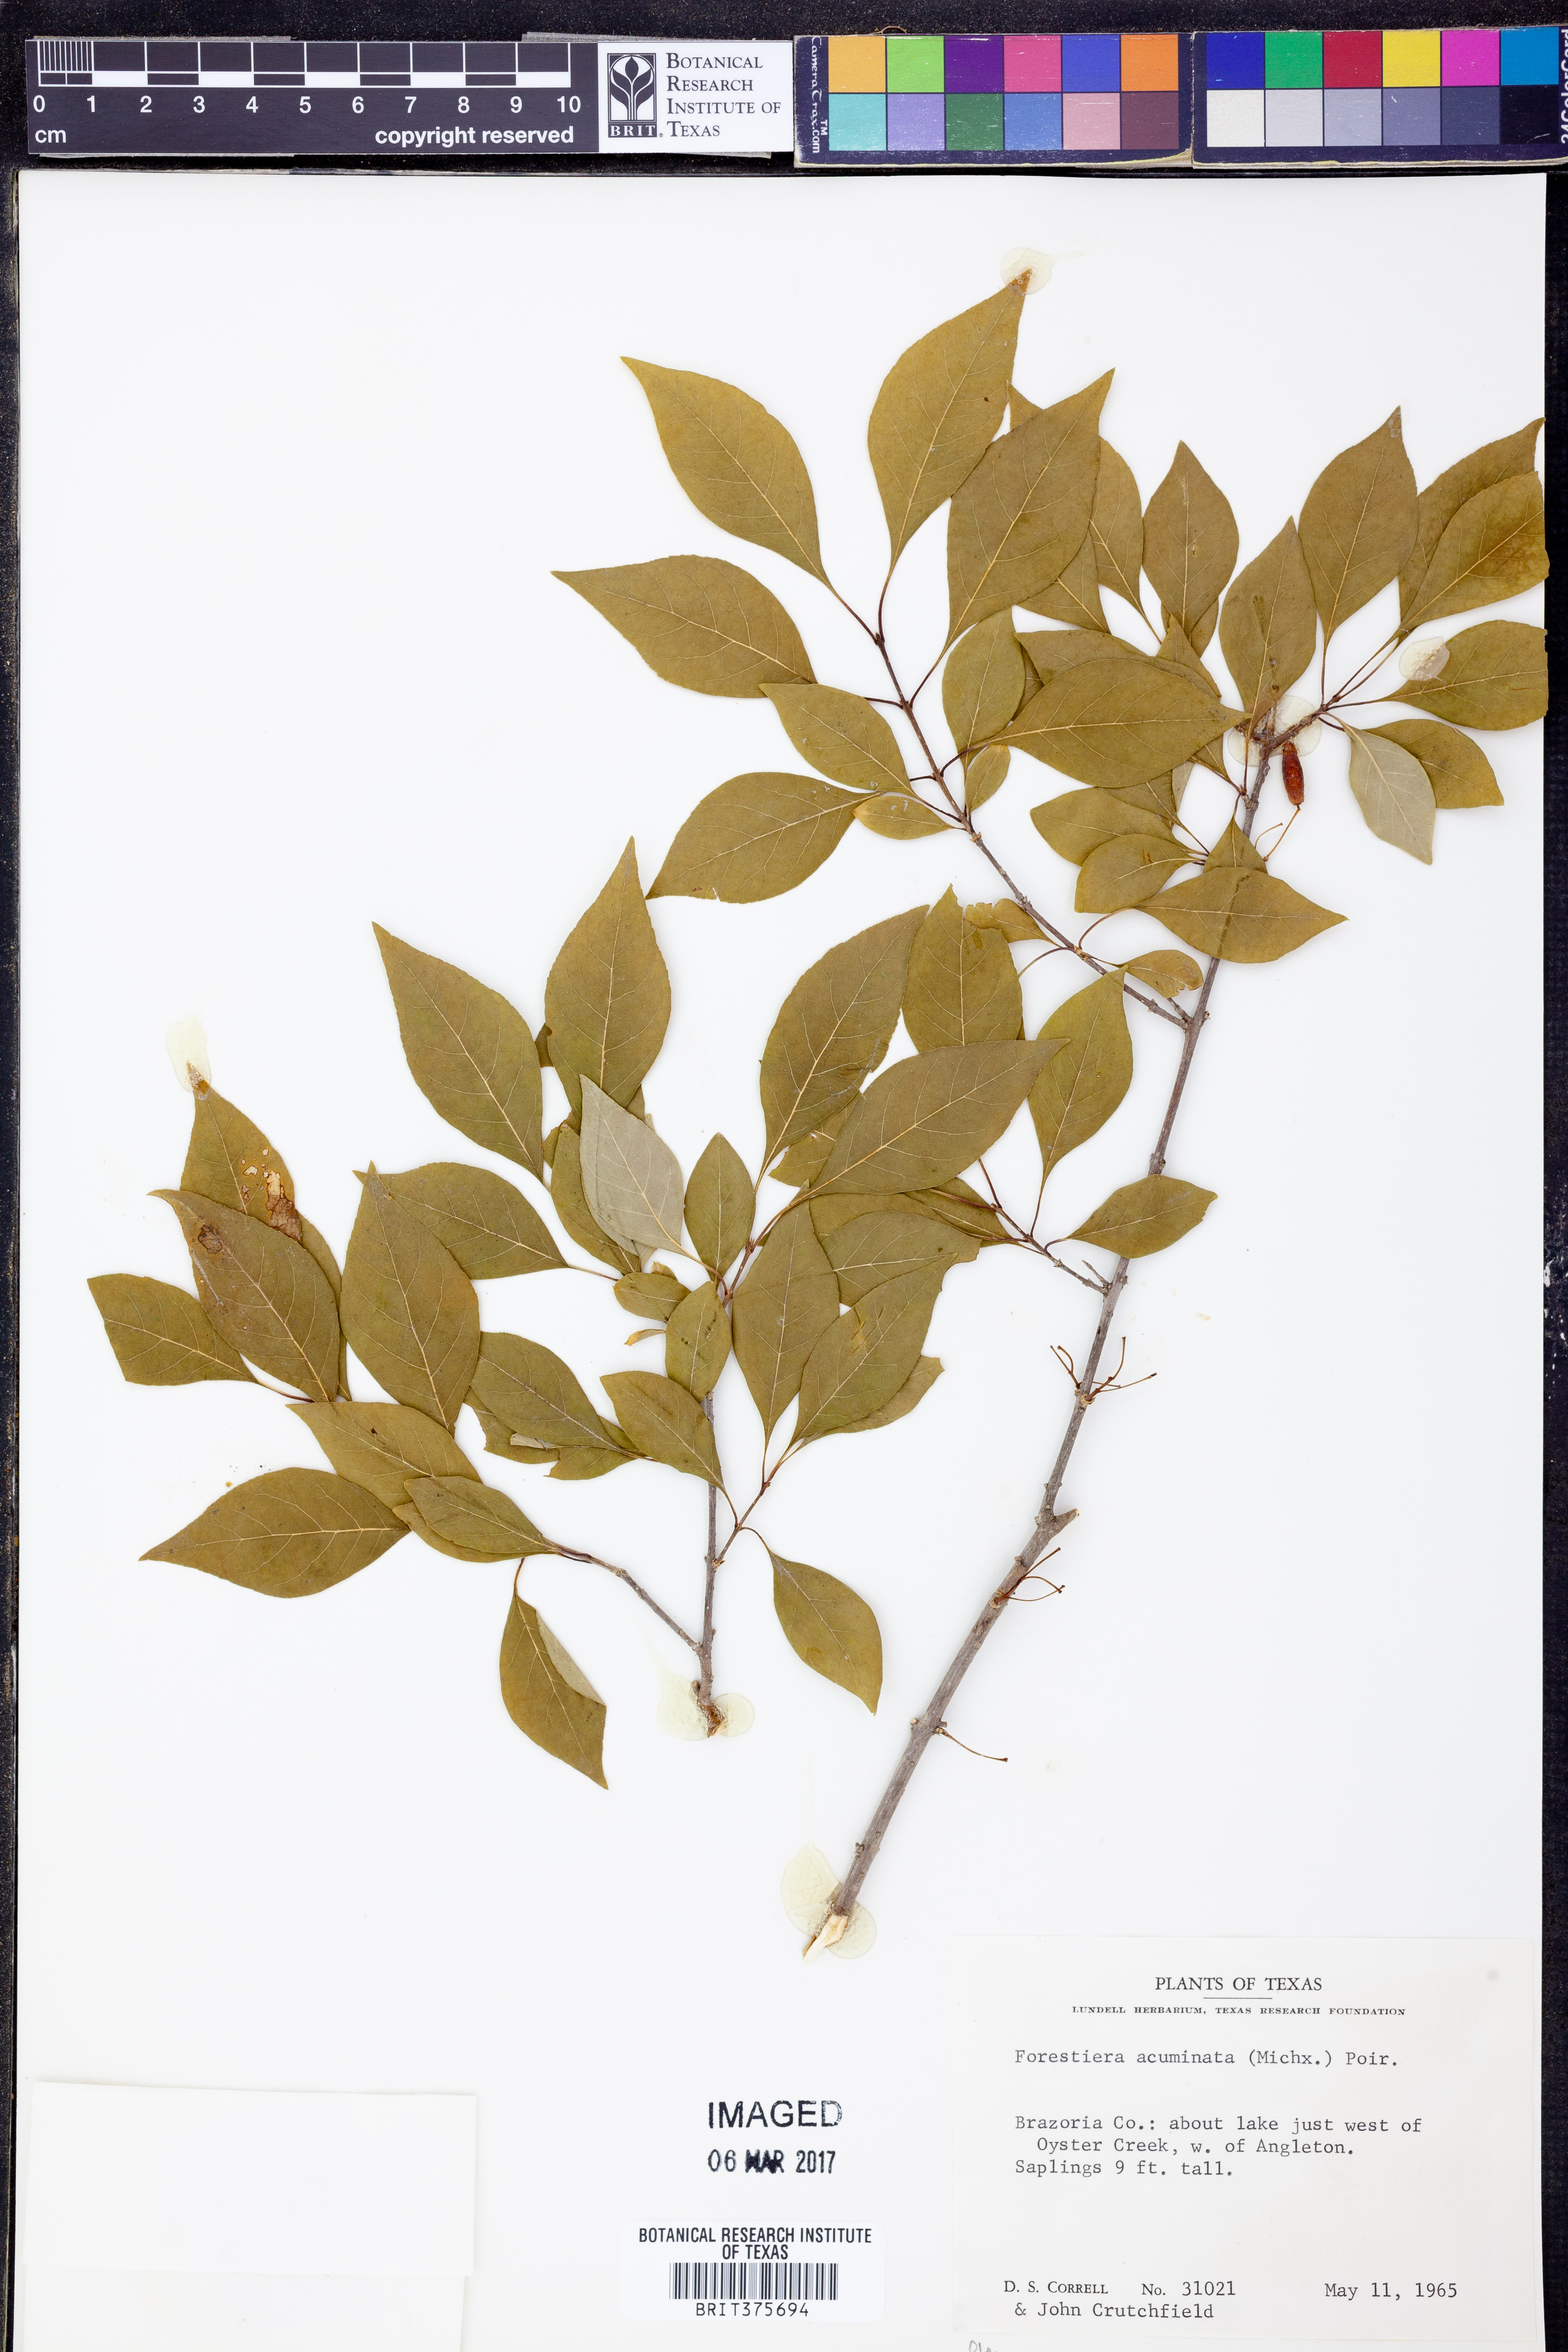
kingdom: Plantae
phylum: Tracheophyta
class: Magnoliopsida
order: Lamiales
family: Oleaceae
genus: Forestiera
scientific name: Forestiera acuminata
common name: Swamp-privet
